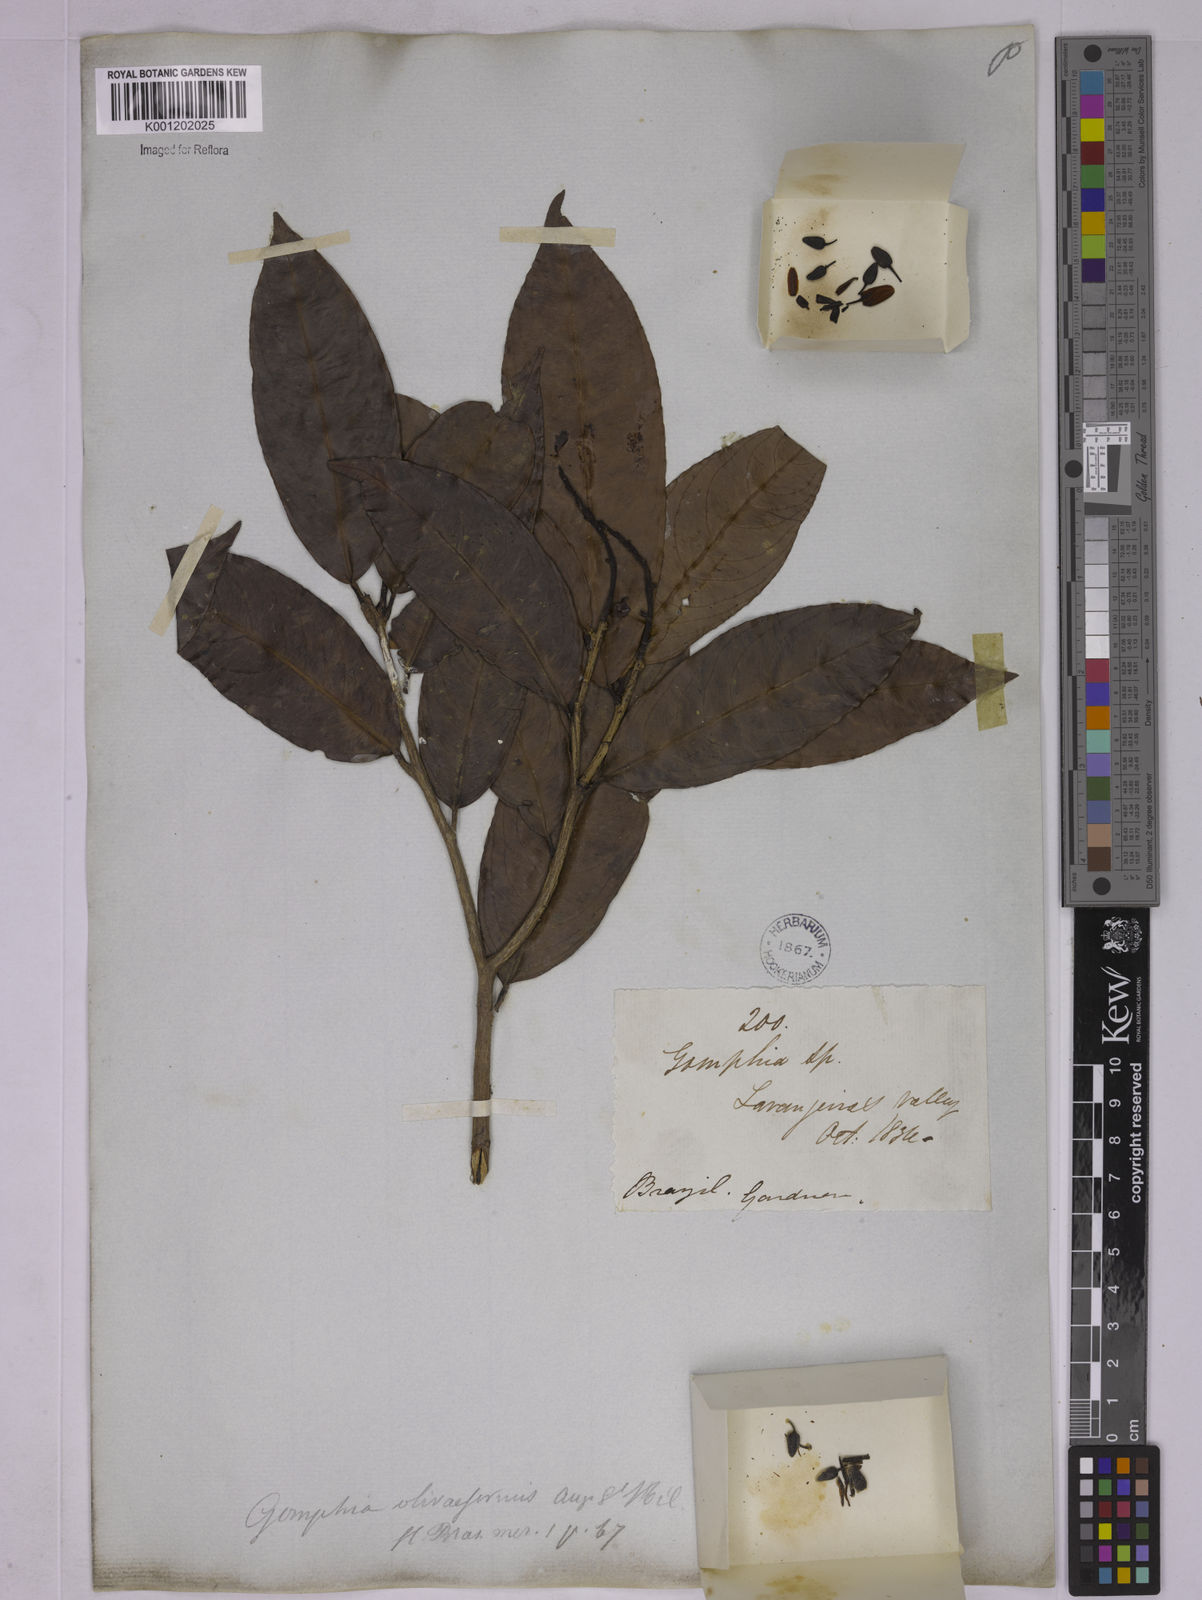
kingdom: Plantae
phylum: Tracheophyta
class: Magnoliopsida
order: Malpighiales
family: Ochnaceae
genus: Ouratea
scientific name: Ouratea oliviformis
